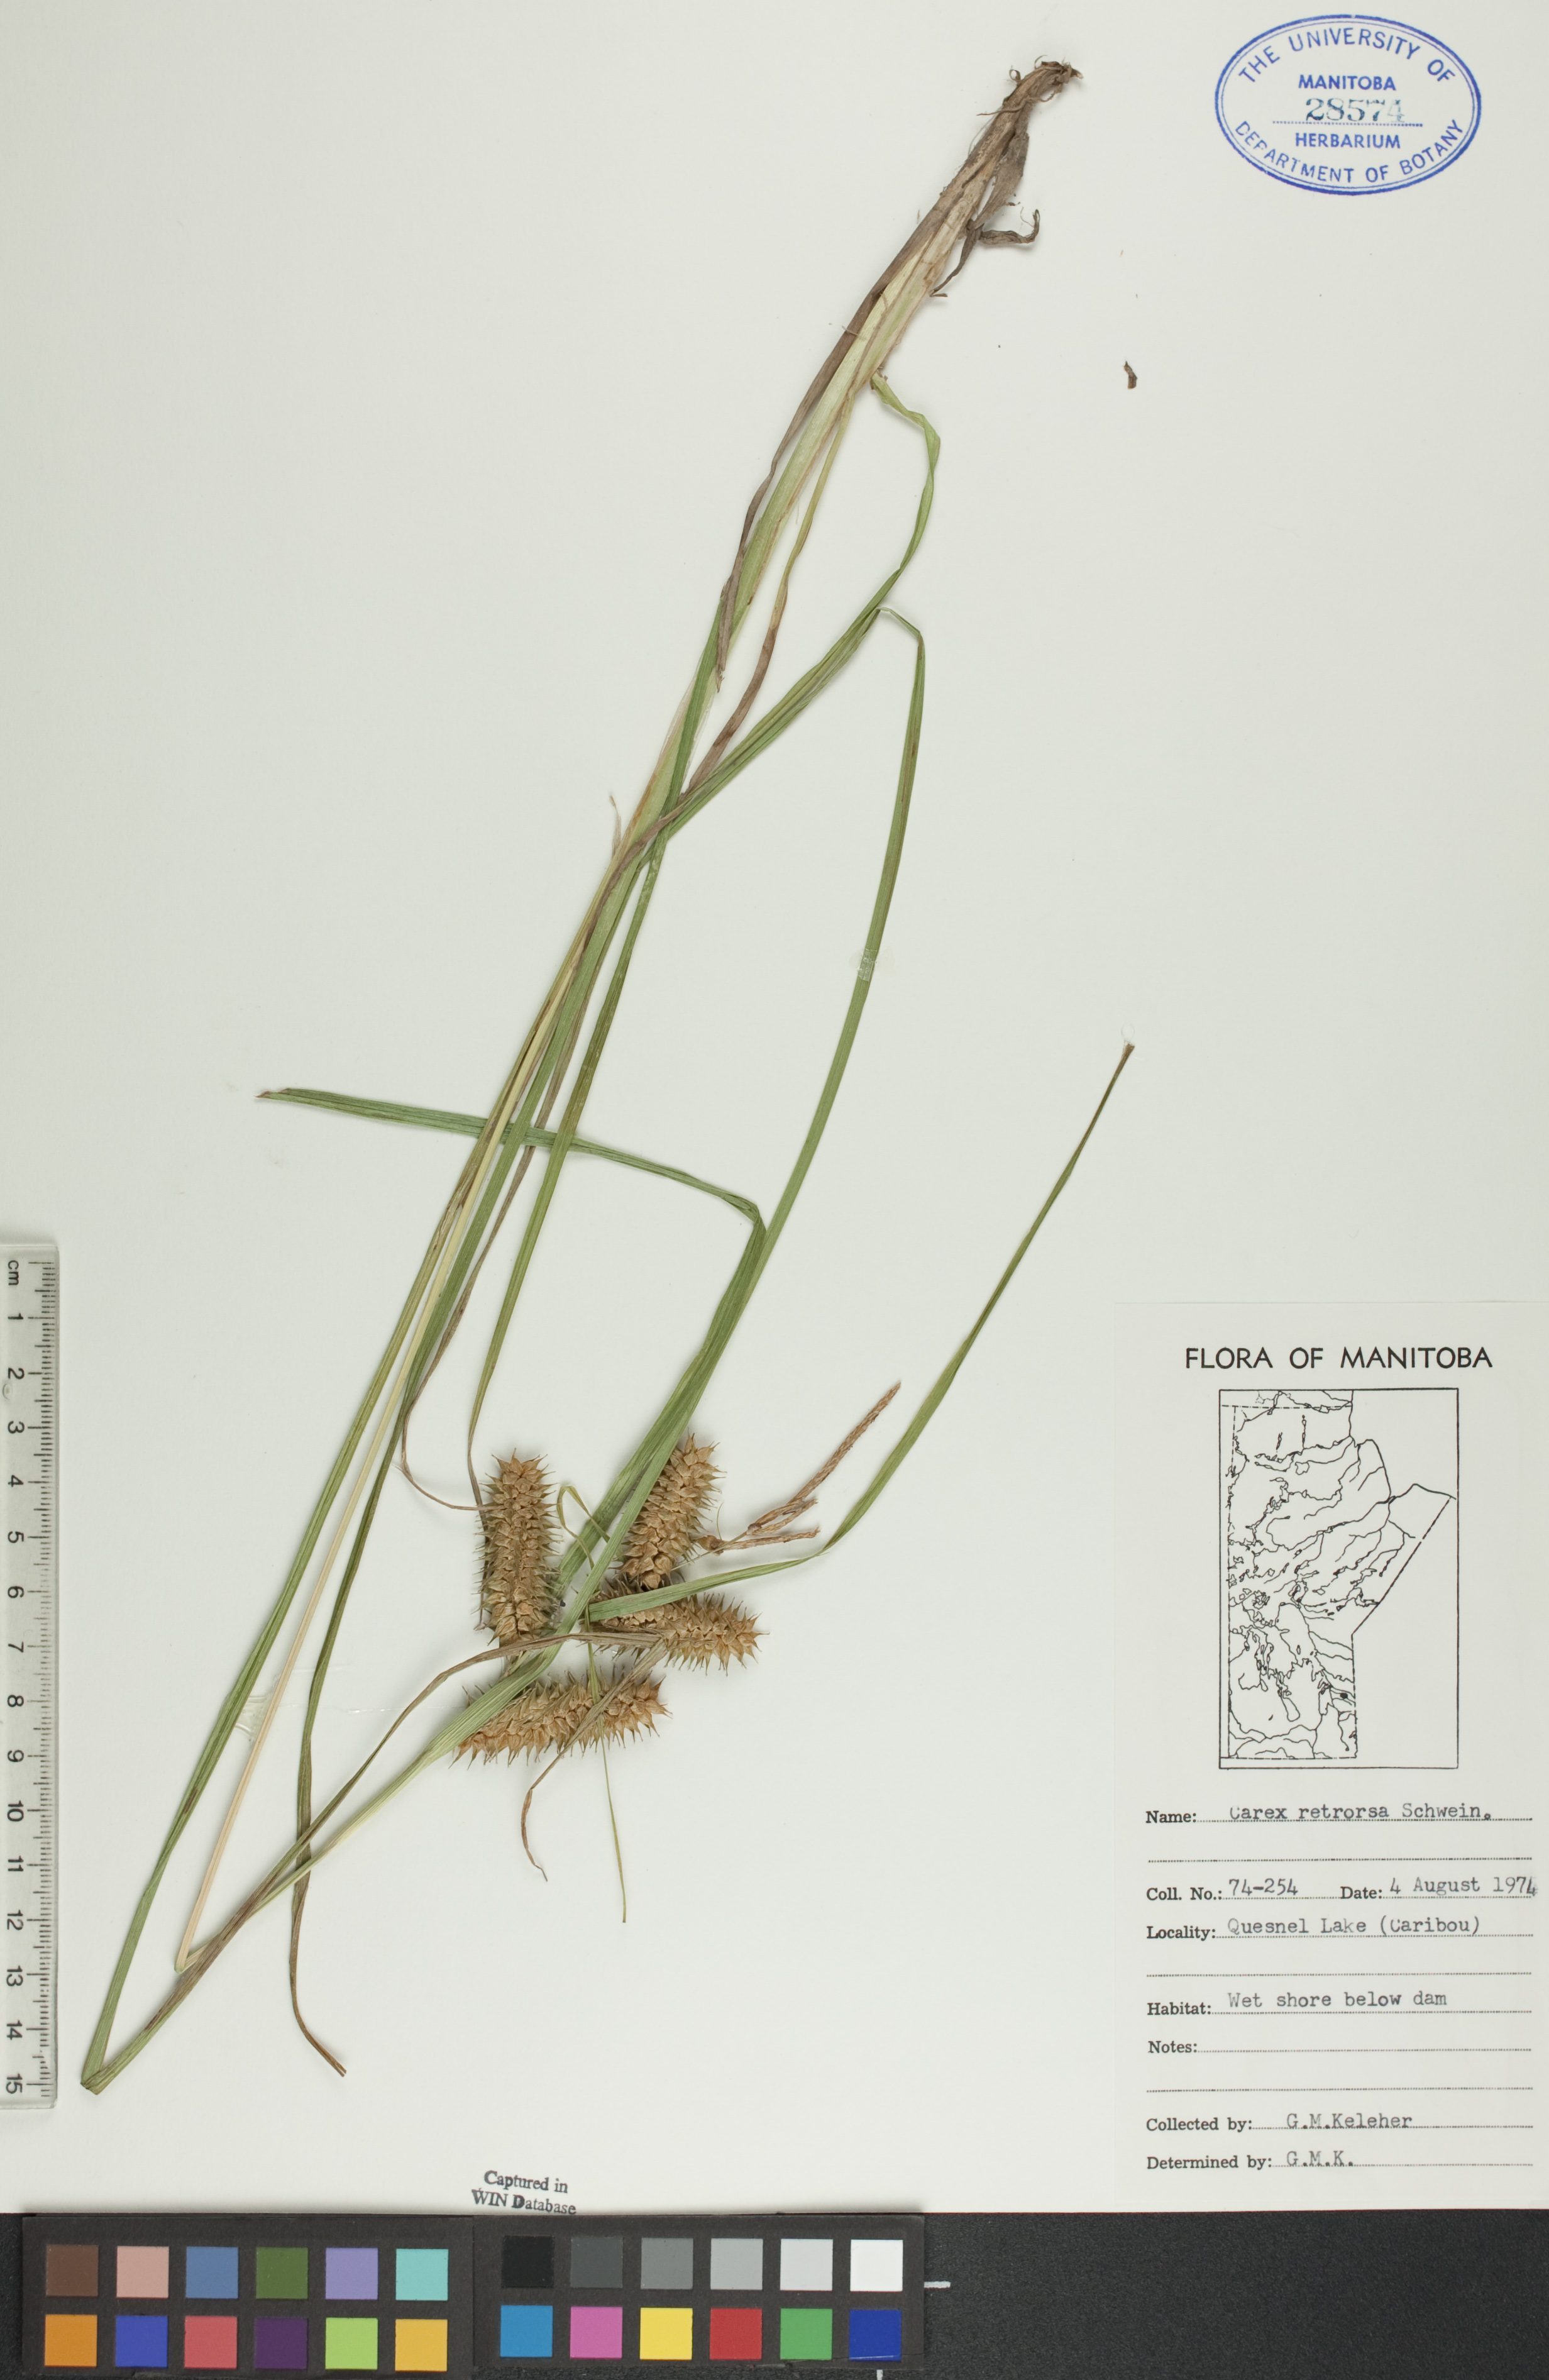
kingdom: Plantae
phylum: Tracheophyta
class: Liliopsida
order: Poales
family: Cyperaceae
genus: Carex
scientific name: Carex retrorsa
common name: Knot-sheath sedge
